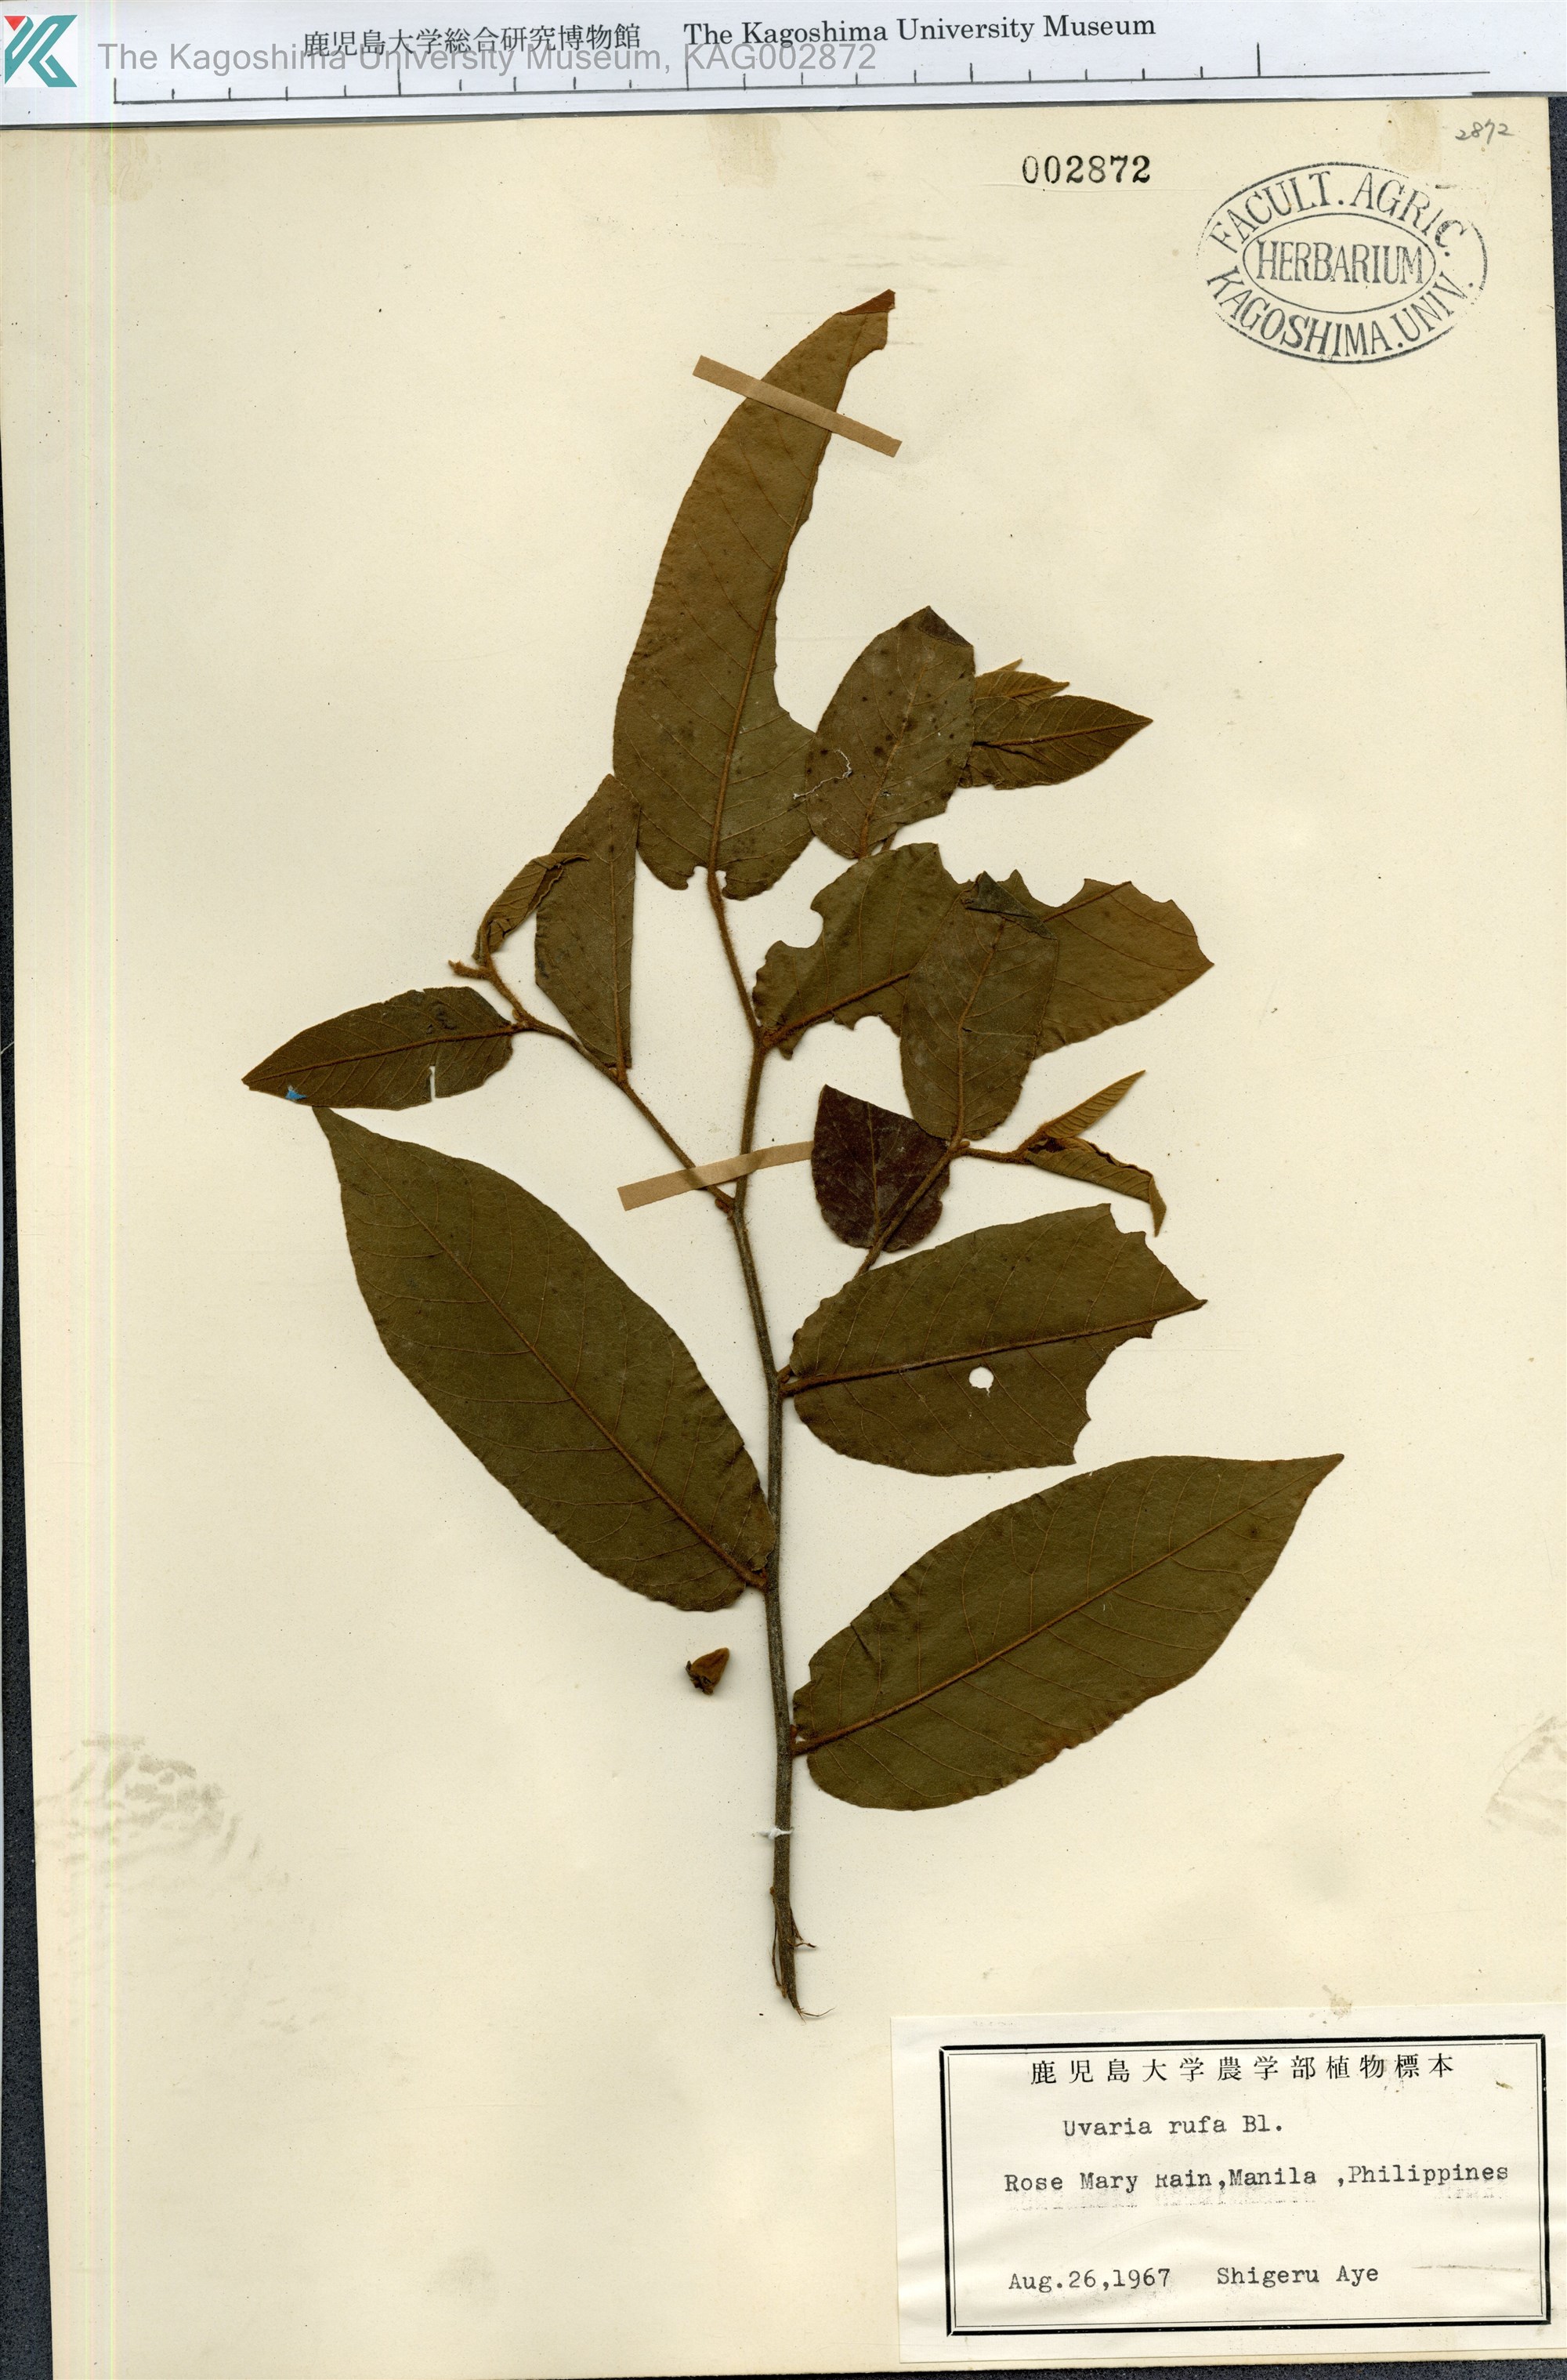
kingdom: Plantae
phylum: Tracheophyta
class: Magnoliopsida
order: Magnoliales
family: Annonaceae
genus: Uvaria
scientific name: Uvaria rufa
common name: Torres strait scrambler
